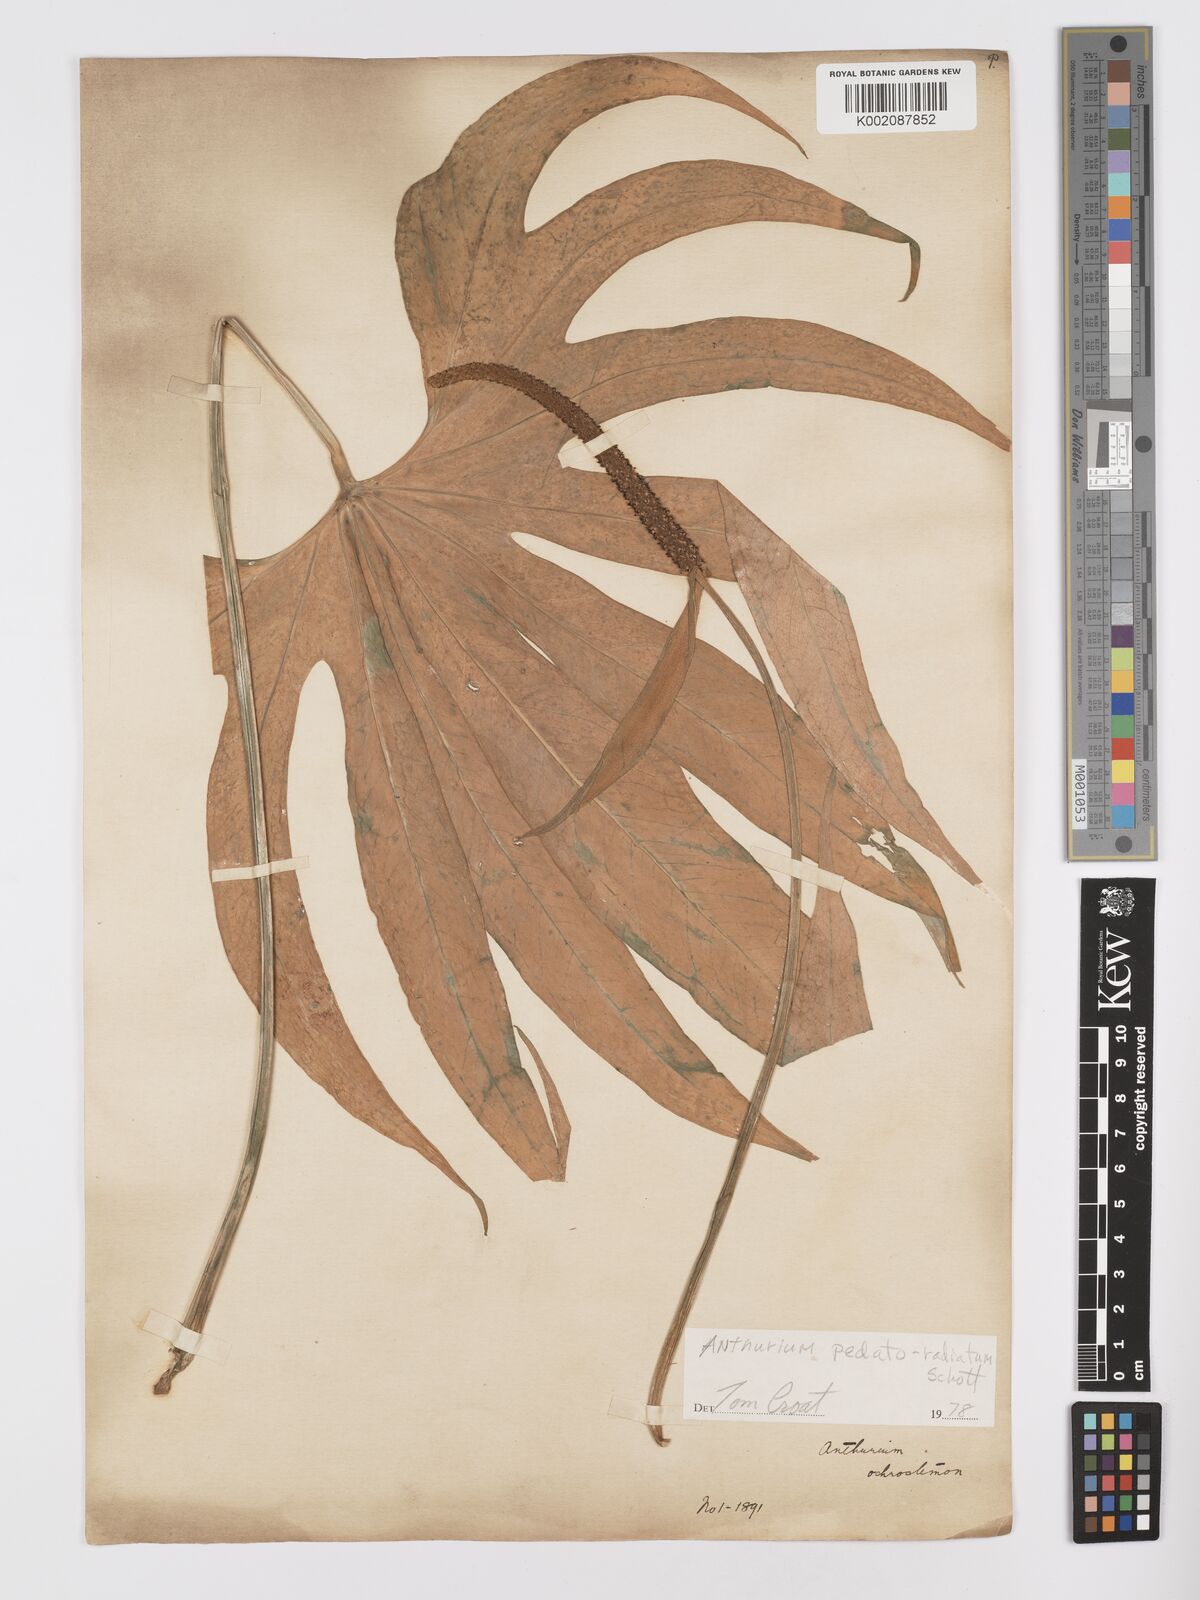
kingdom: Plantae
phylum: Tracheophyta
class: Liliopsida
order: Alismatales
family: Araceae
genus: Anthurium
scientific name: Anthurium pedatoradiatum
